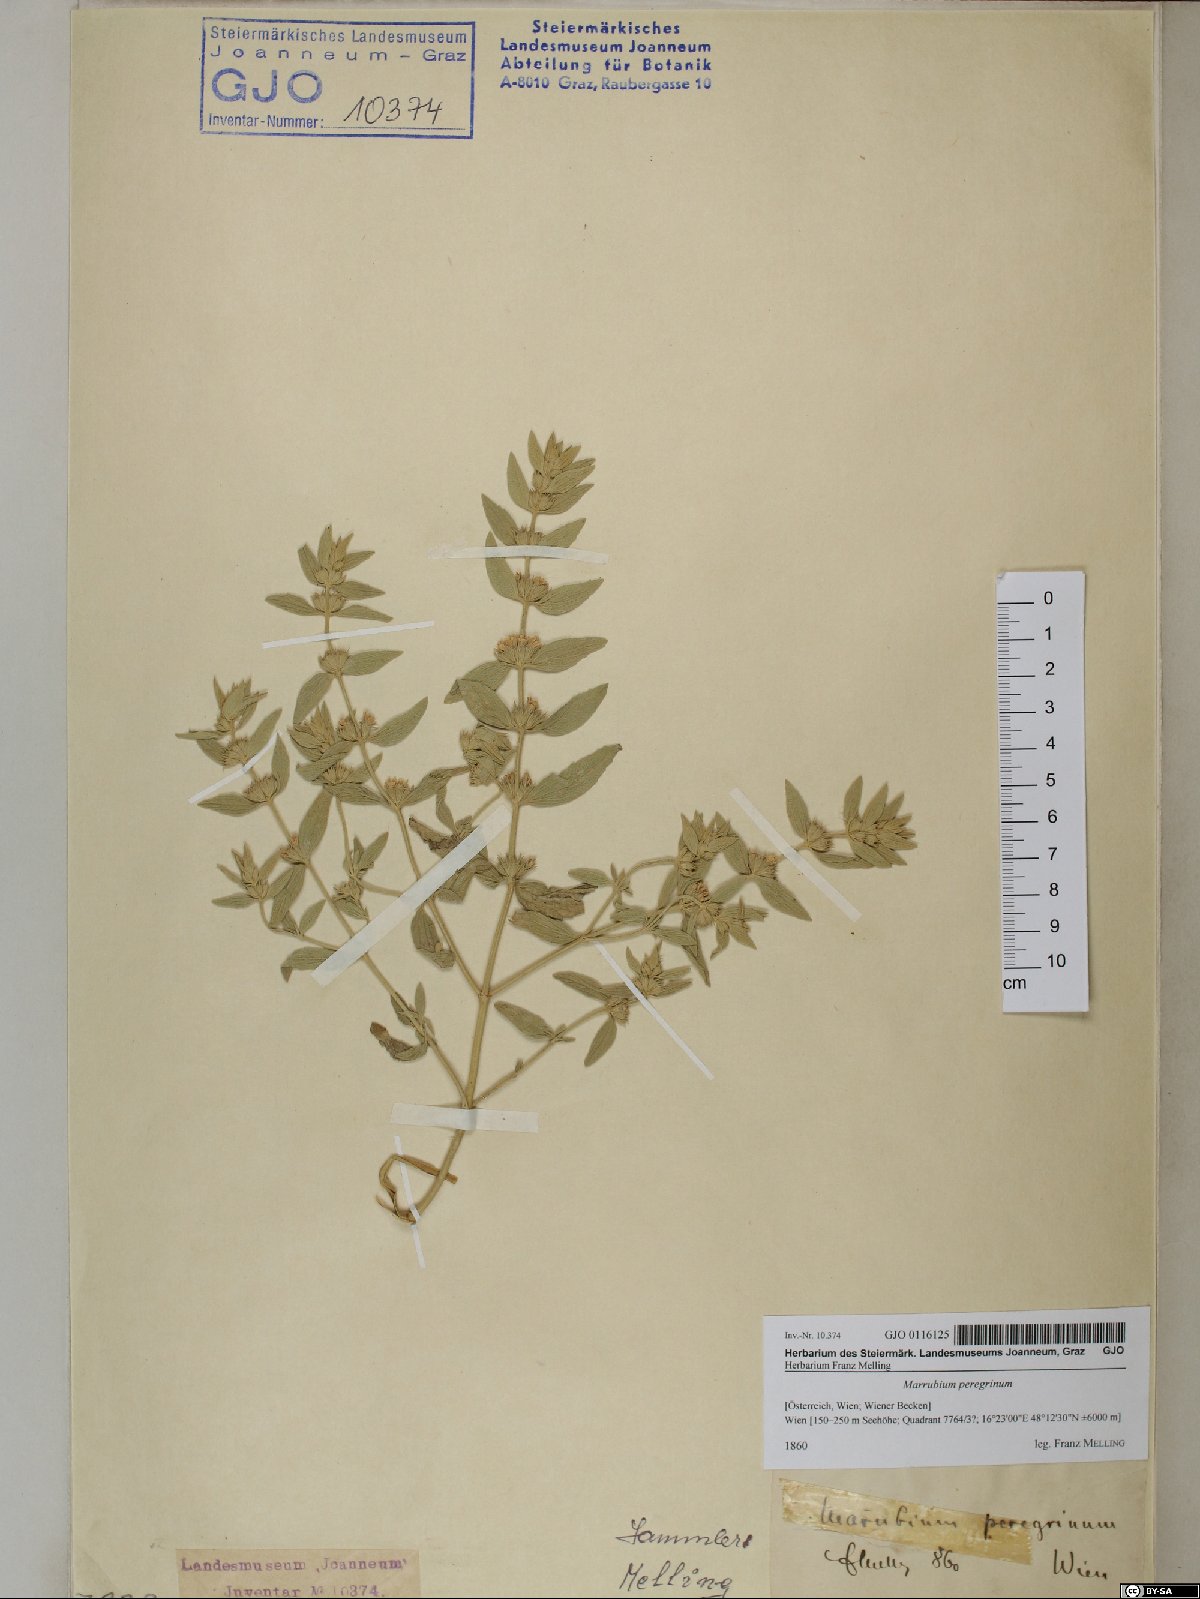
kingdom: Plantae
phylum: Tracheophyta
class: Magnoliopsida
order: Lamiales
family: Lamiaceae
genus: Marrubium
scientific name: Marrubium peregrinum
